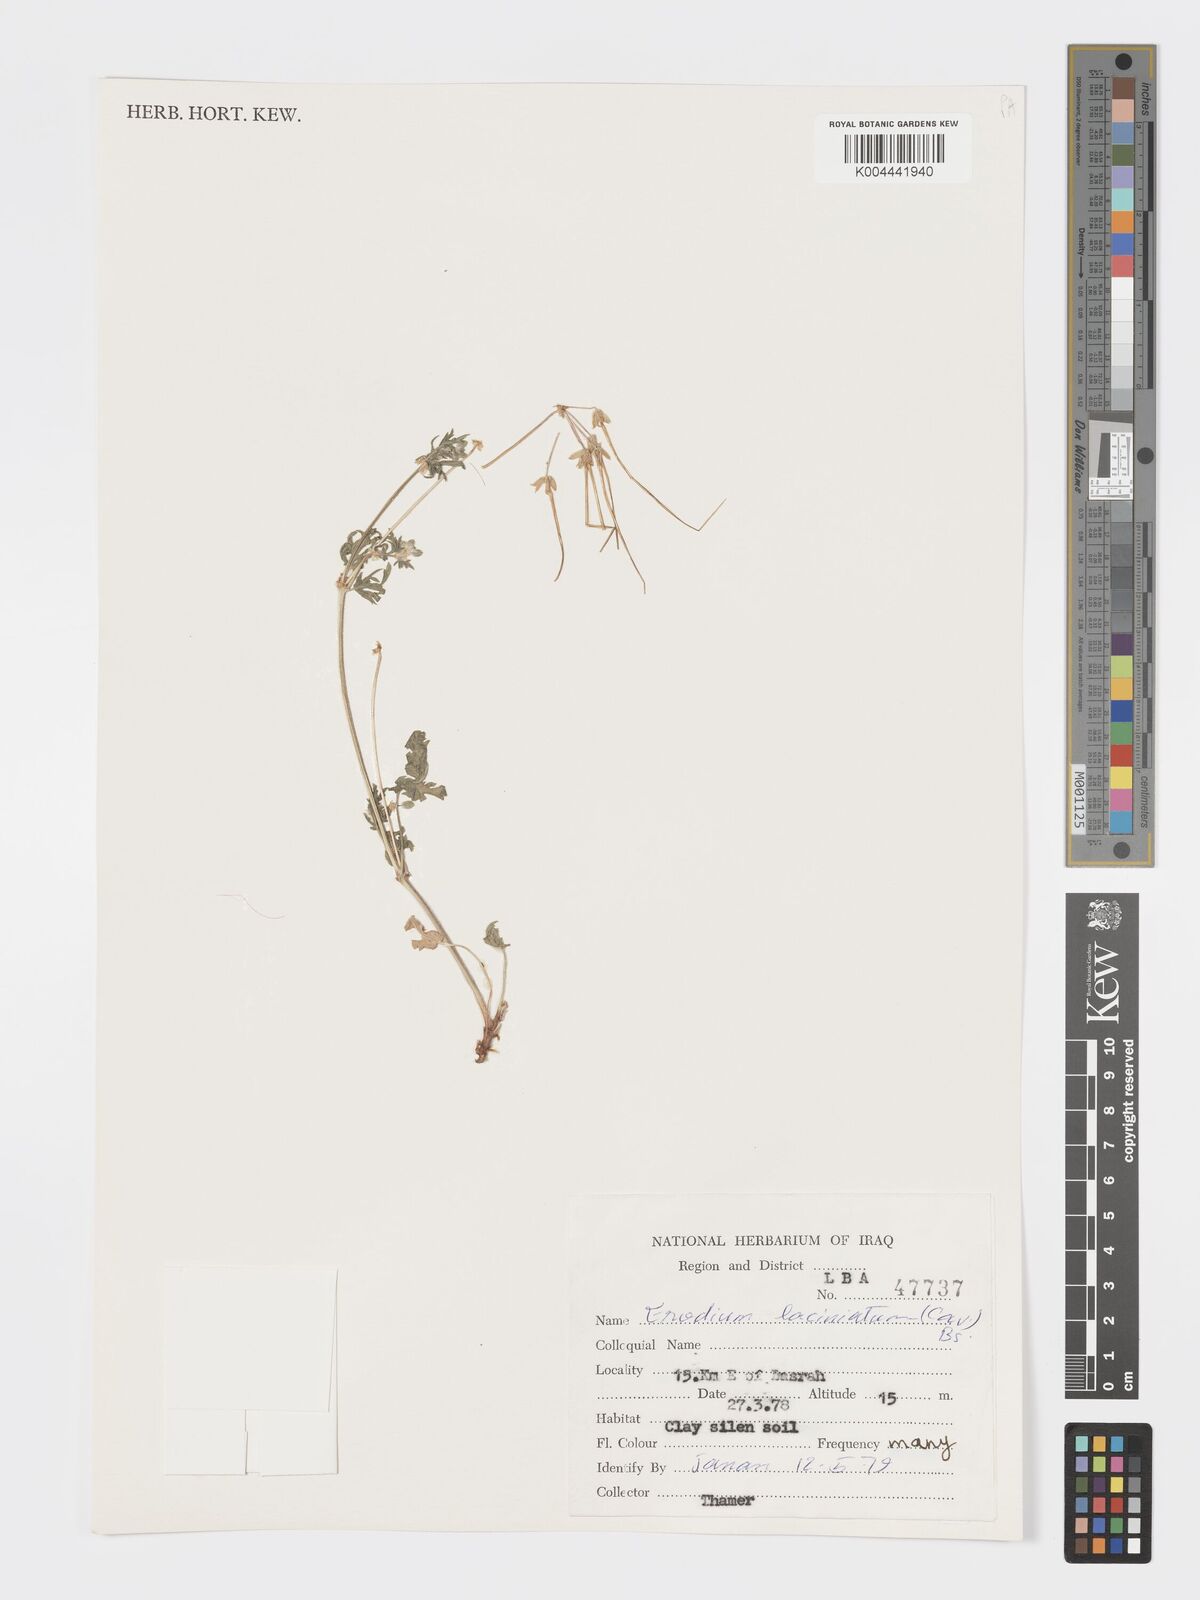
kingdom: Plantae
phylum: Tracheophyta
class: Magnoliopsida
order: Geraniales
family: Geraniaceae
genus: Erodium
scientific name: Erodium laciniatum
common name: Cutleaf stork's bill
